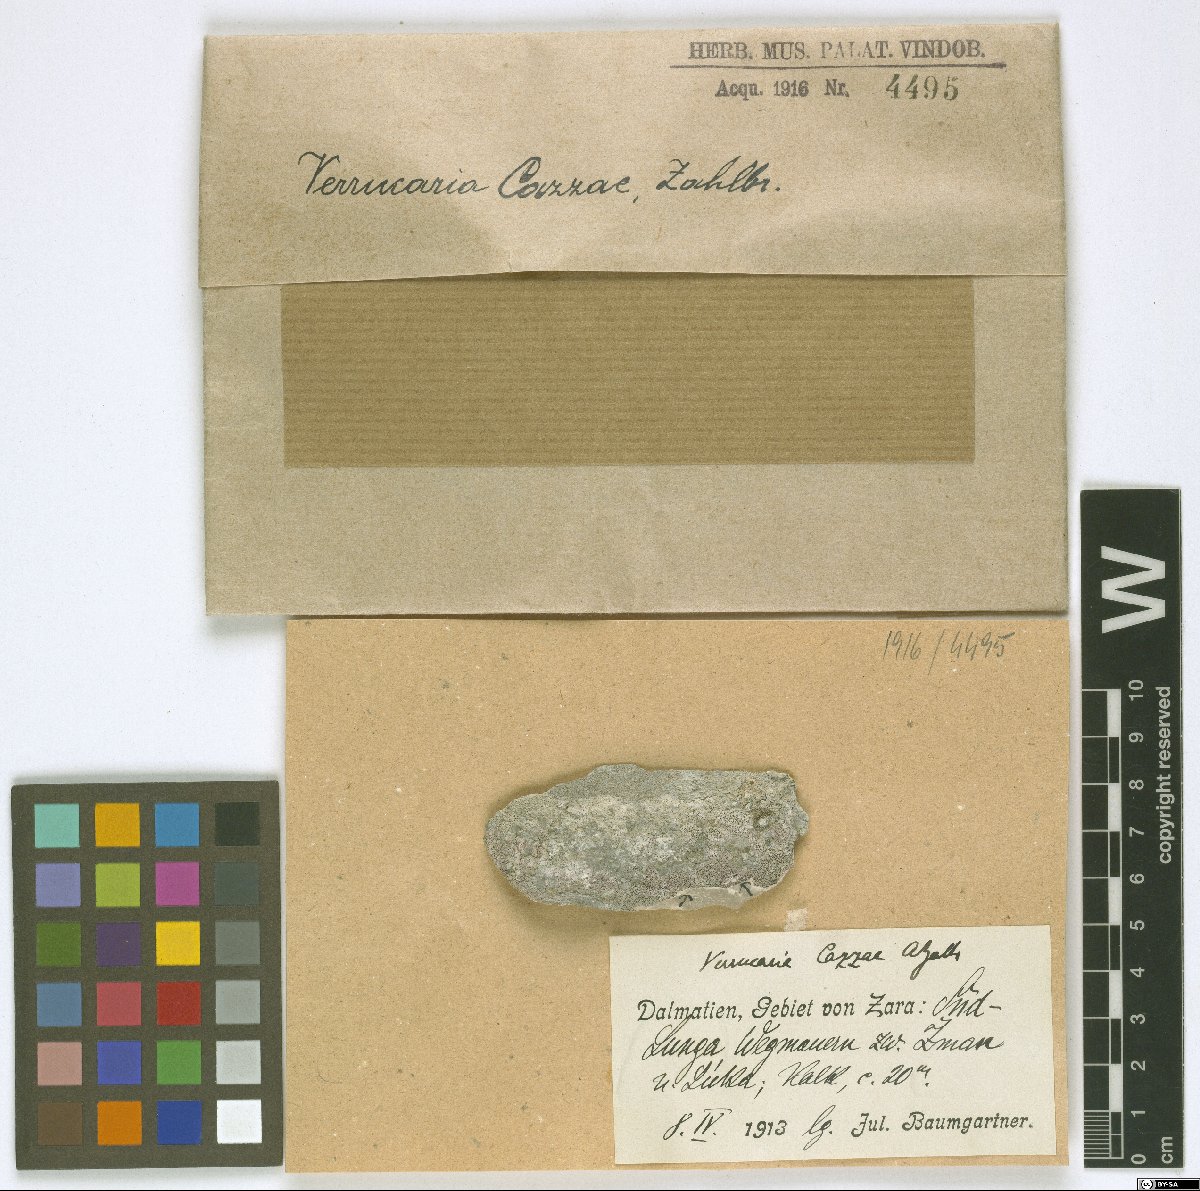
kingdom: Fungi
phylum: Ascomycota
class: Eurotiomycetes
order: Verrucariales
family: Verrucariaceae
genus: Verrucaria
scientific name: Verrucaria
